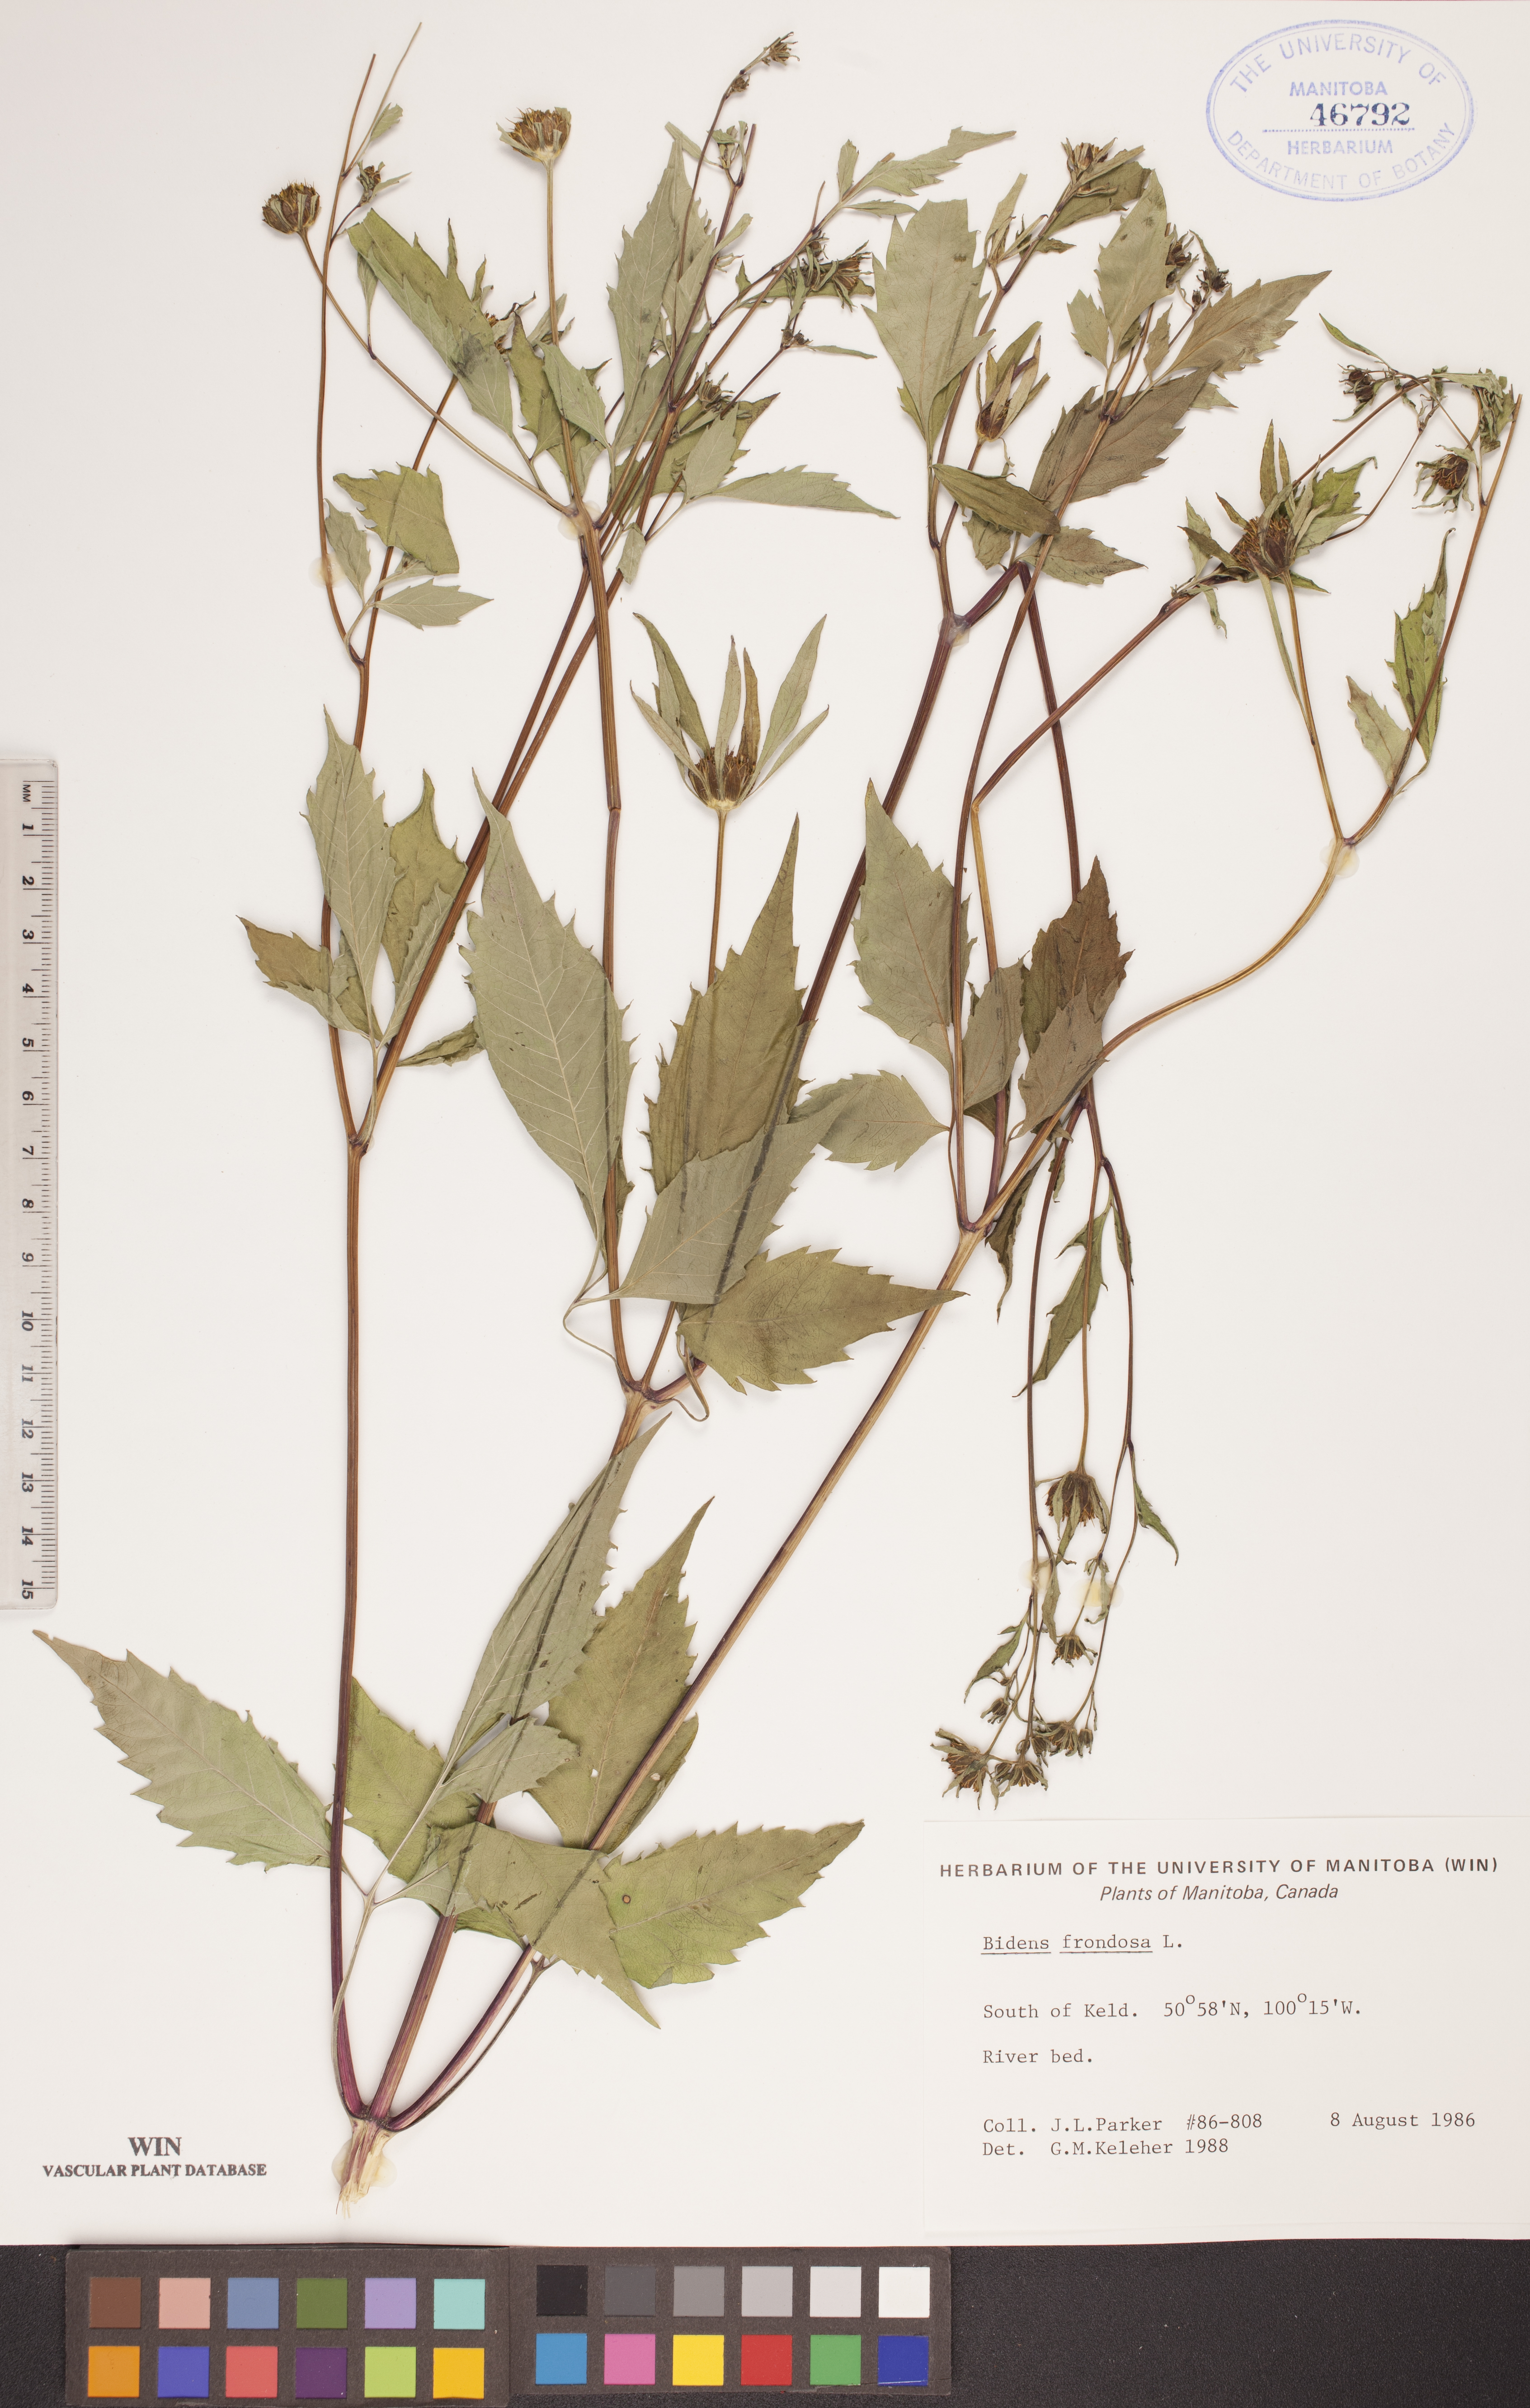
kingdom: Plantae
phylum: Tracheophyta
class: Magnoliopsida
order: Asterales
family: Asteraceae
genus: Bidens
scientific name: Bidens frondosa
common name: Beggarticks
